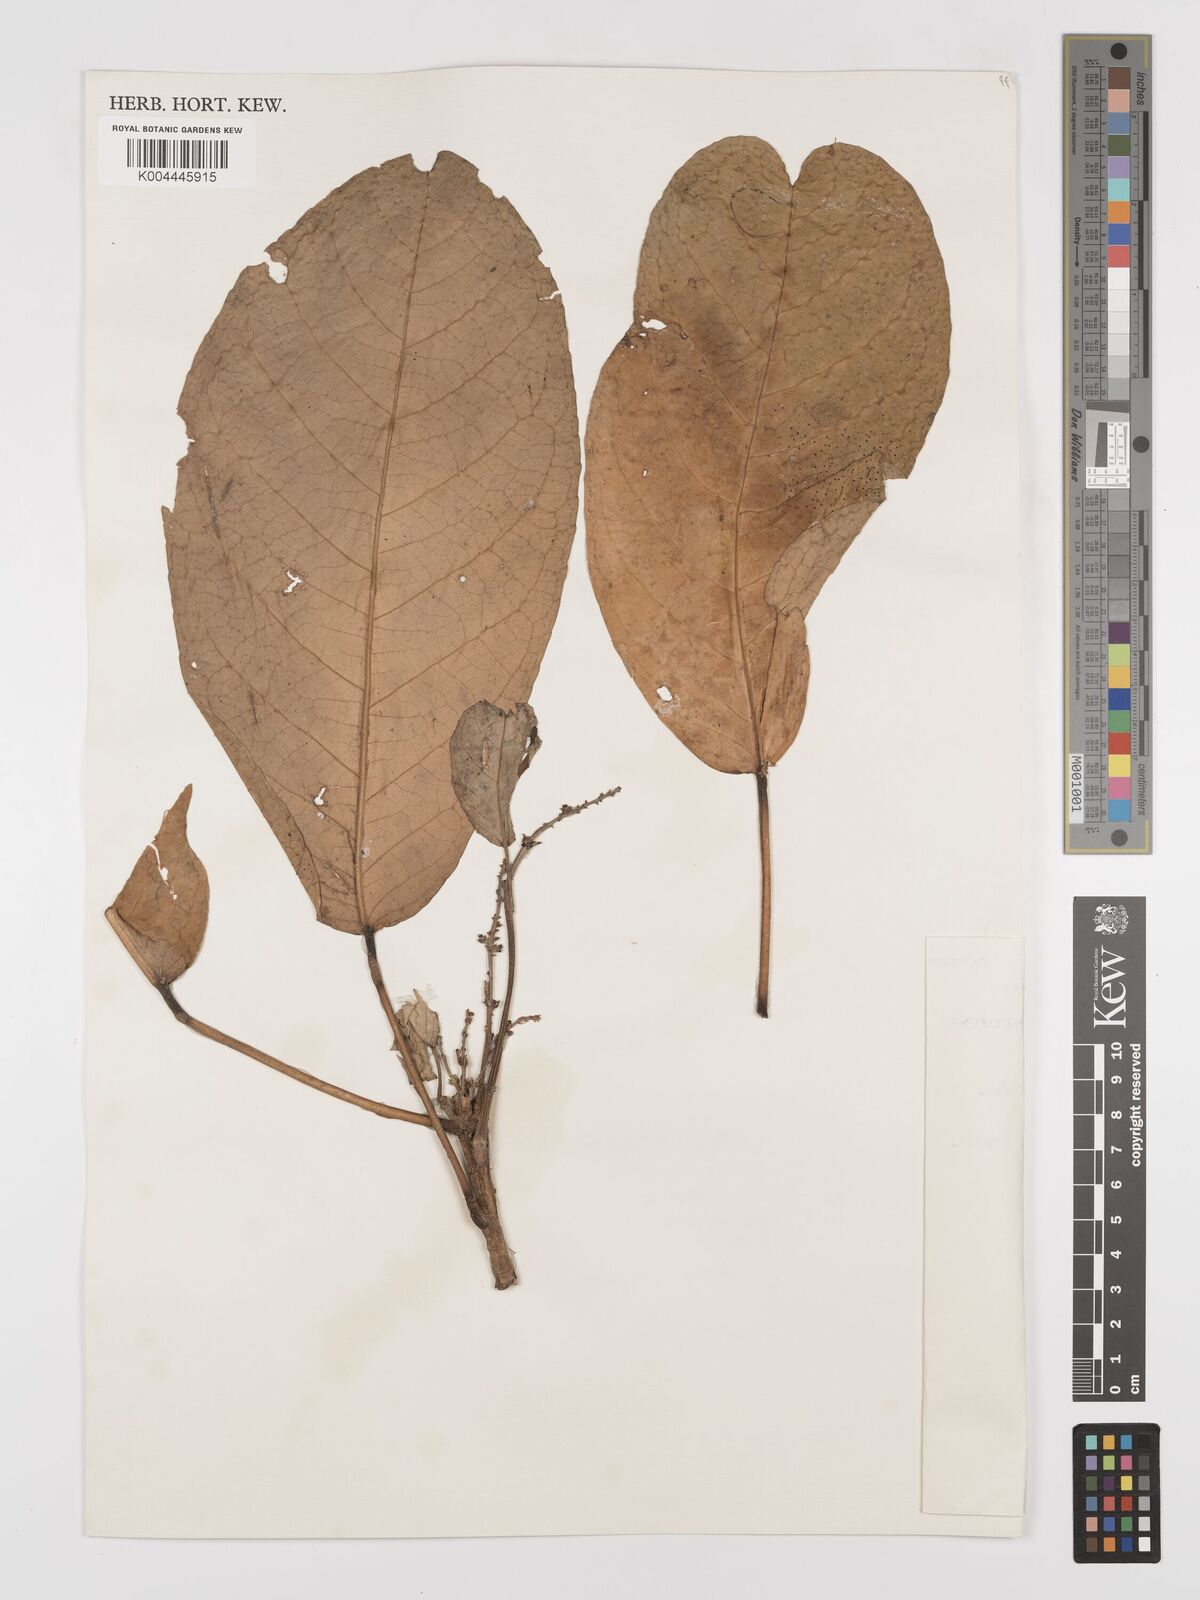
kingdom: Plantae
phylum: Tracheophyta
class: Magnoliopsida
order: Malpighiales
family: Euphorbiaceae
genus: Croton
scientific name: Croton griffithii
